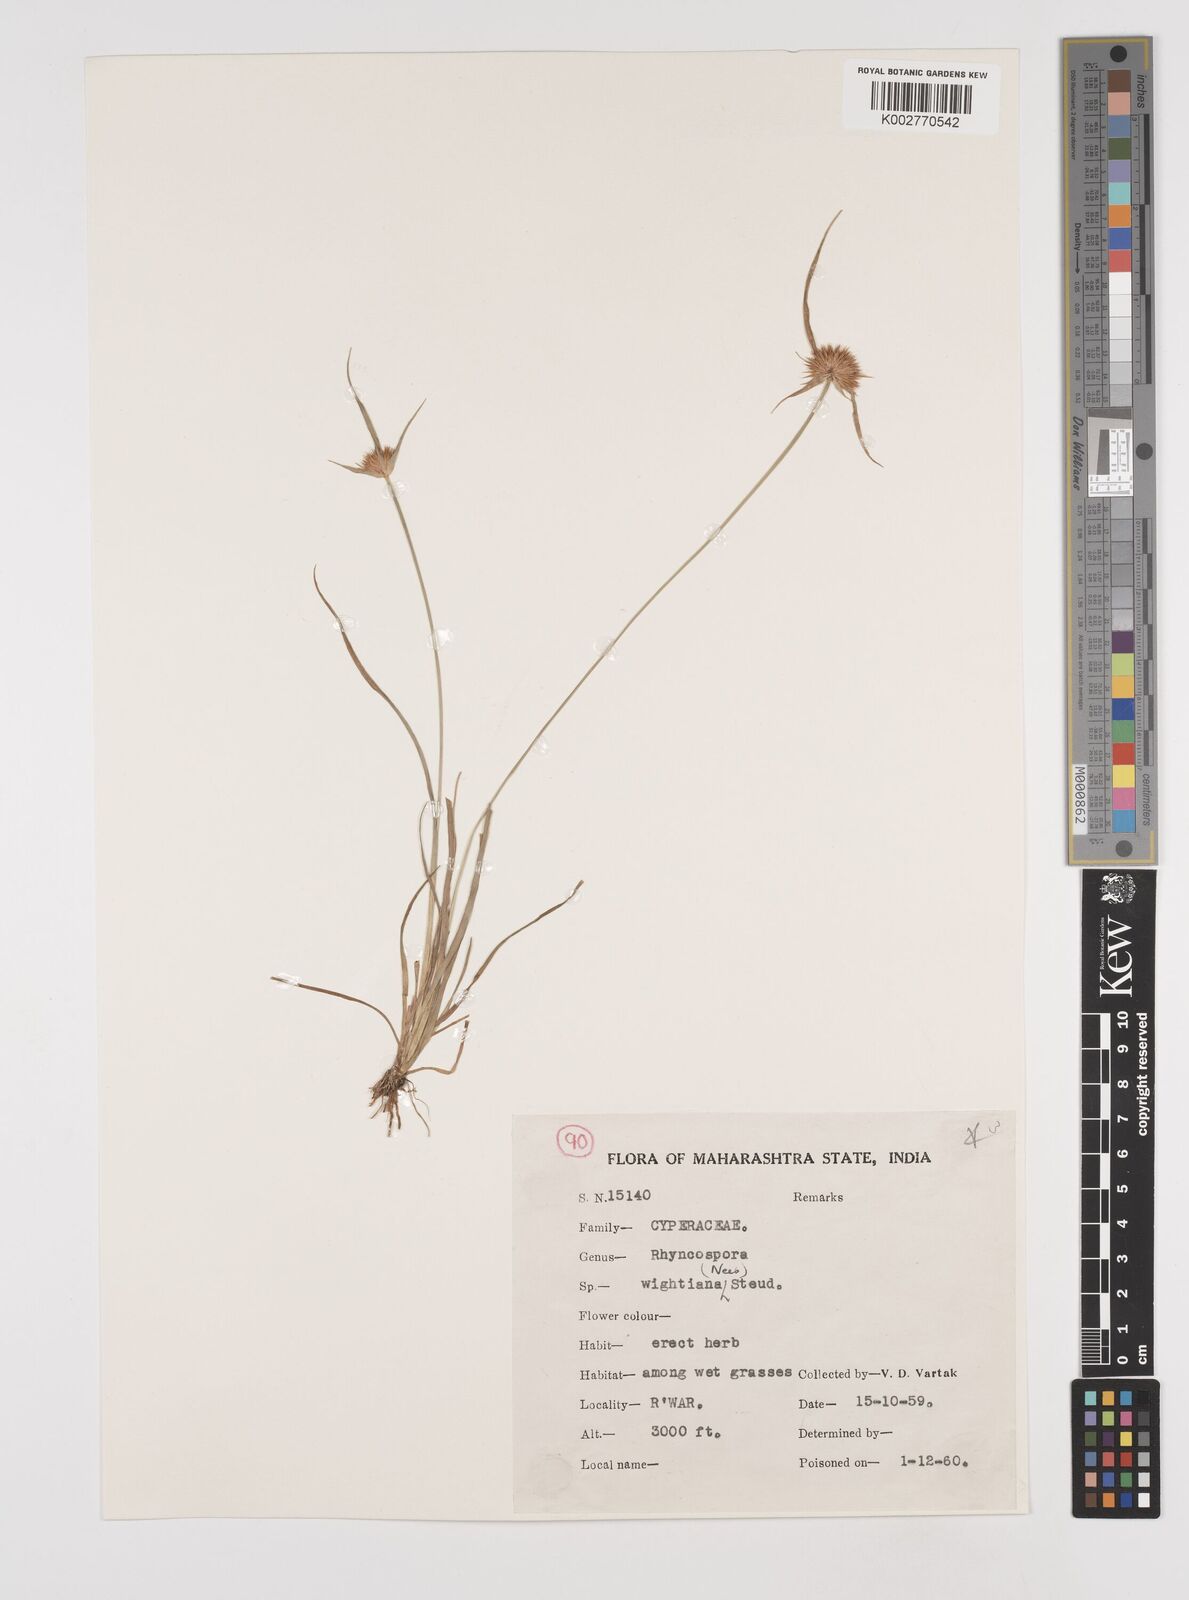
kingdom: Plantae
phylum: Tracheophyta
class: Liliopsida
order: Poales
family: Cyperaceae
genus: Rhynchospora
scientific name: Rhynchospora wightiana
